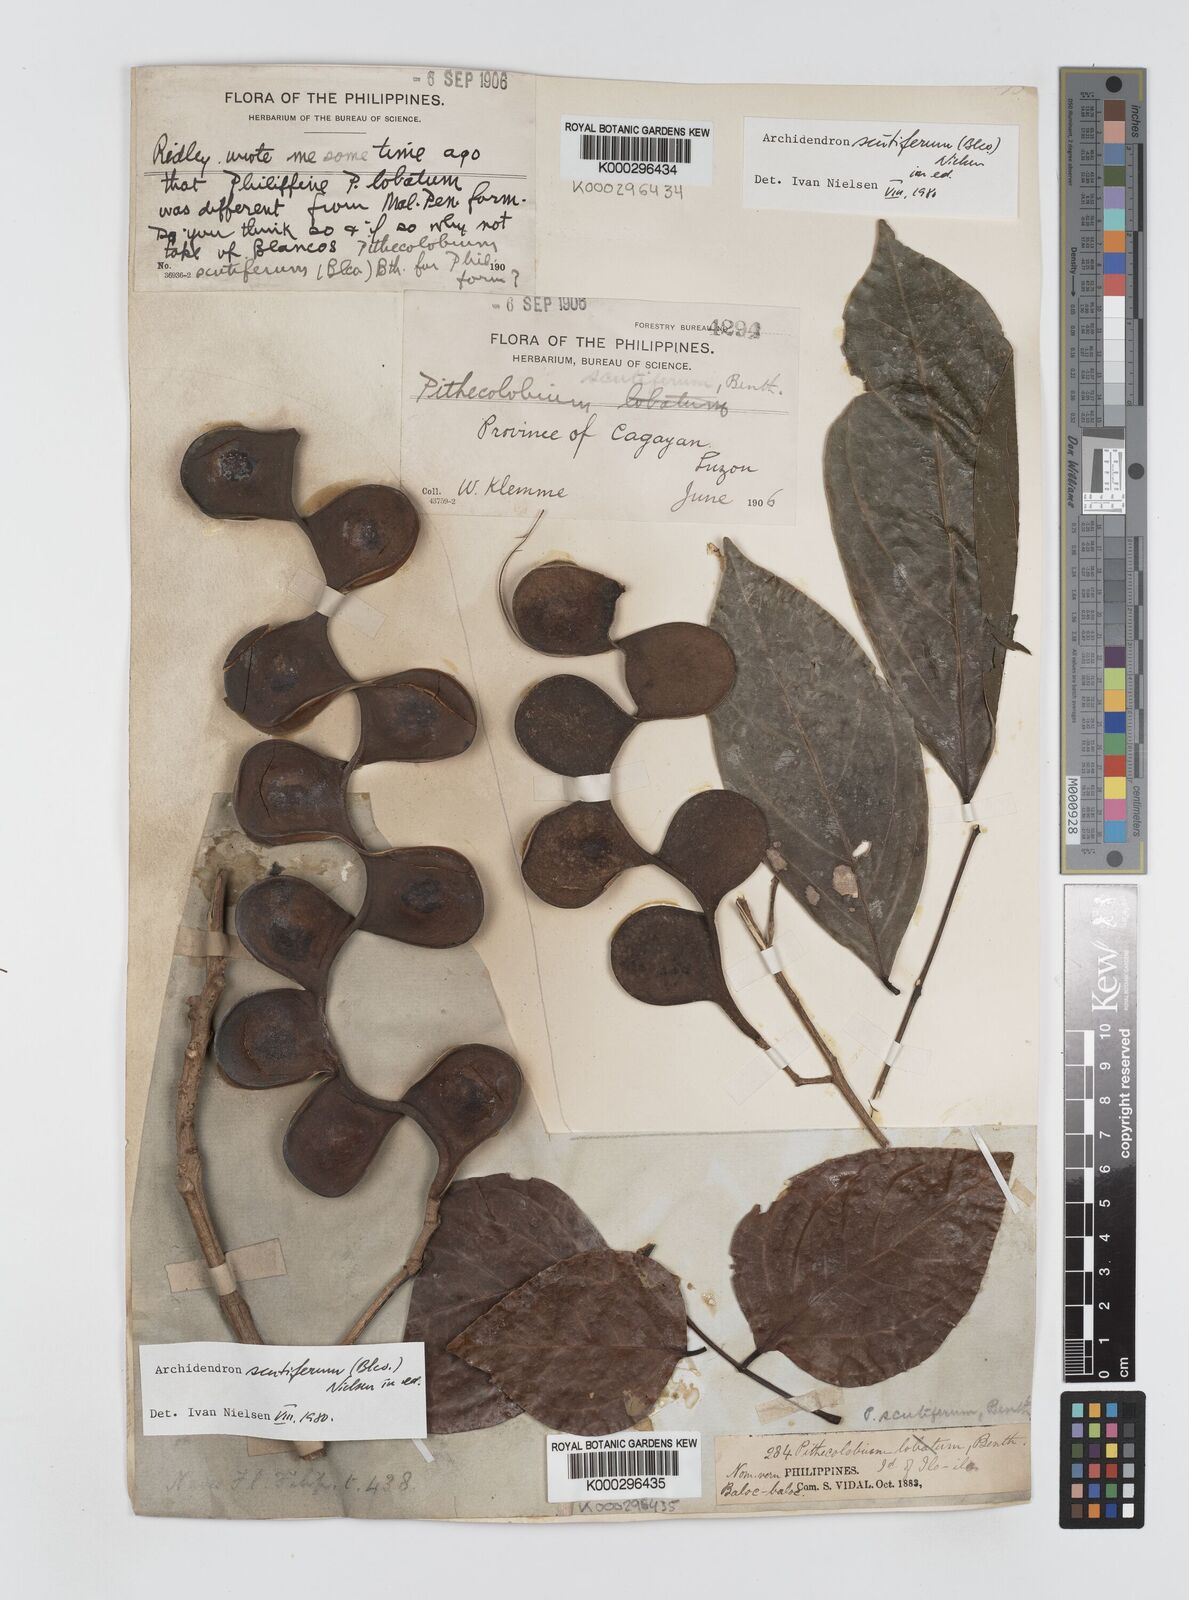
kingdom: Plantae
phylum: Tracheophyta
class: Magnoliopsida
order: Fabales
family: Fabaceae
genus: Archidendron
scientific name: Archidendron scutiferum
